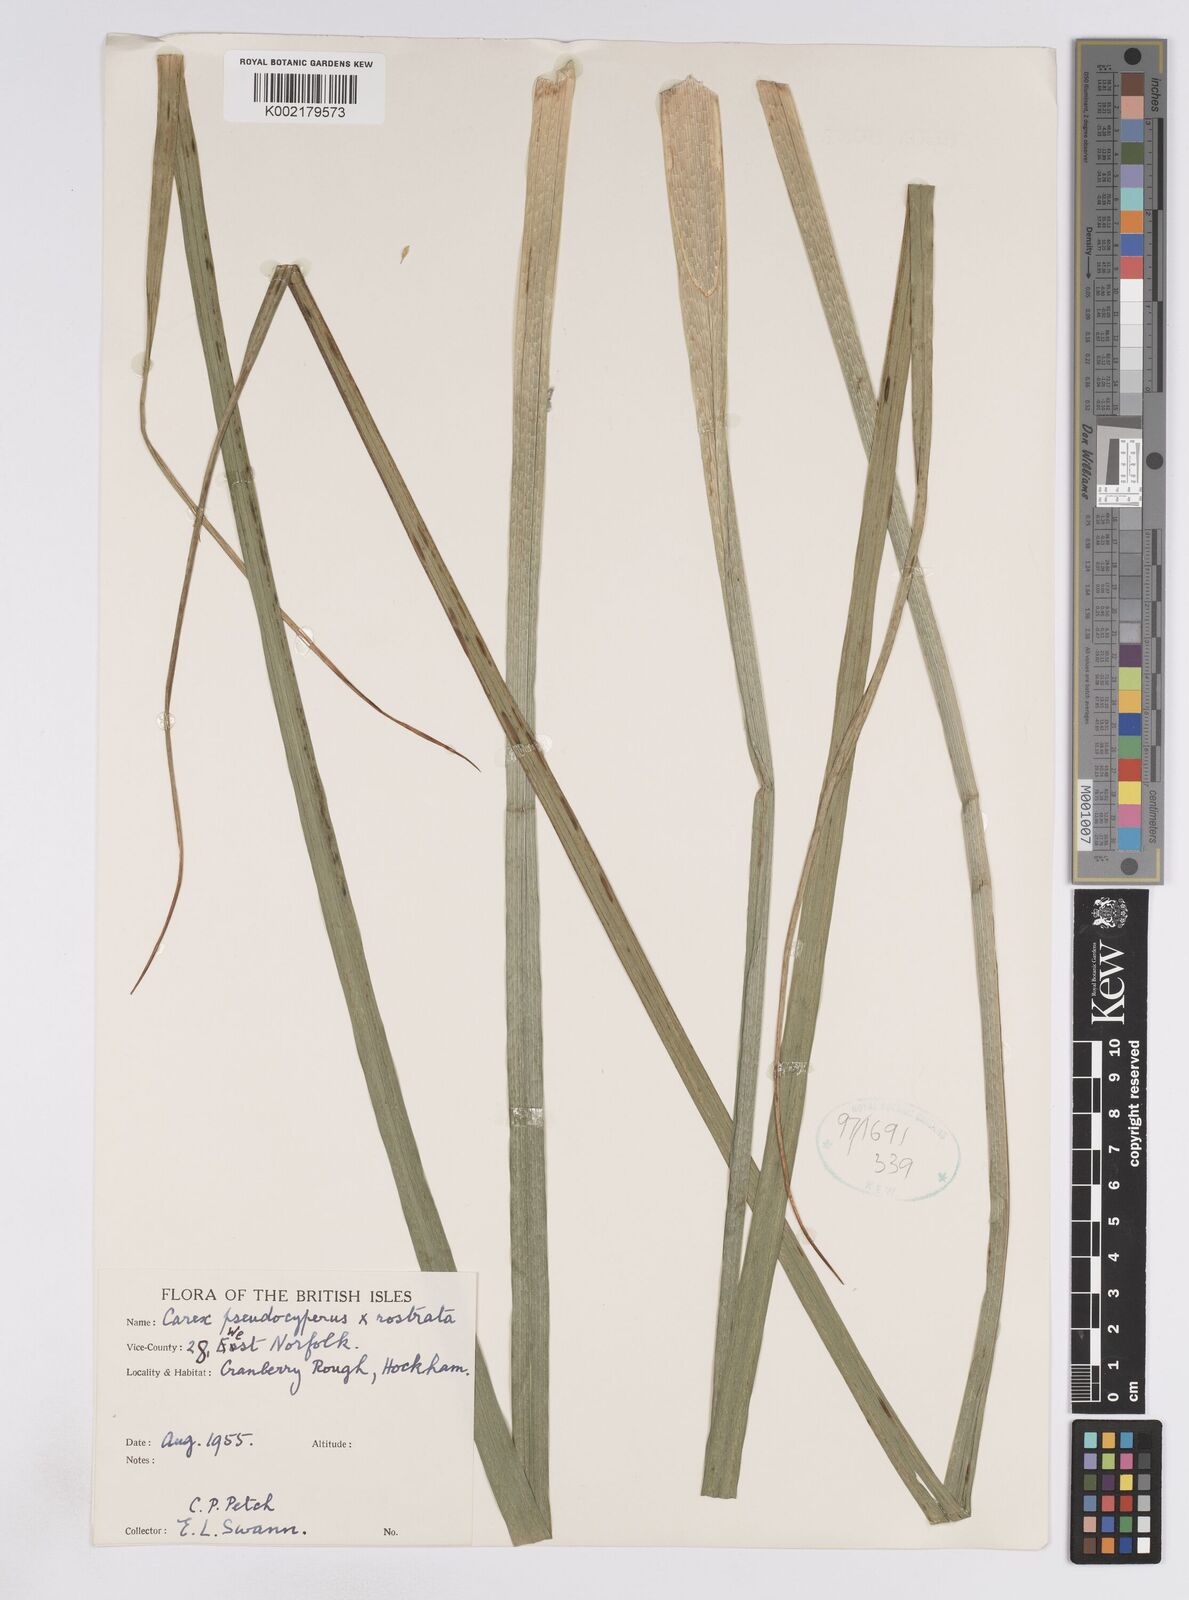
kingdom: Plantae
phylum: Tracheophyta
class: Liliopsida
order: Poales
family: Cyperaceae
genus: Carex
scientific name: Carex pseudocyperus
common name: Cyperus sedge
